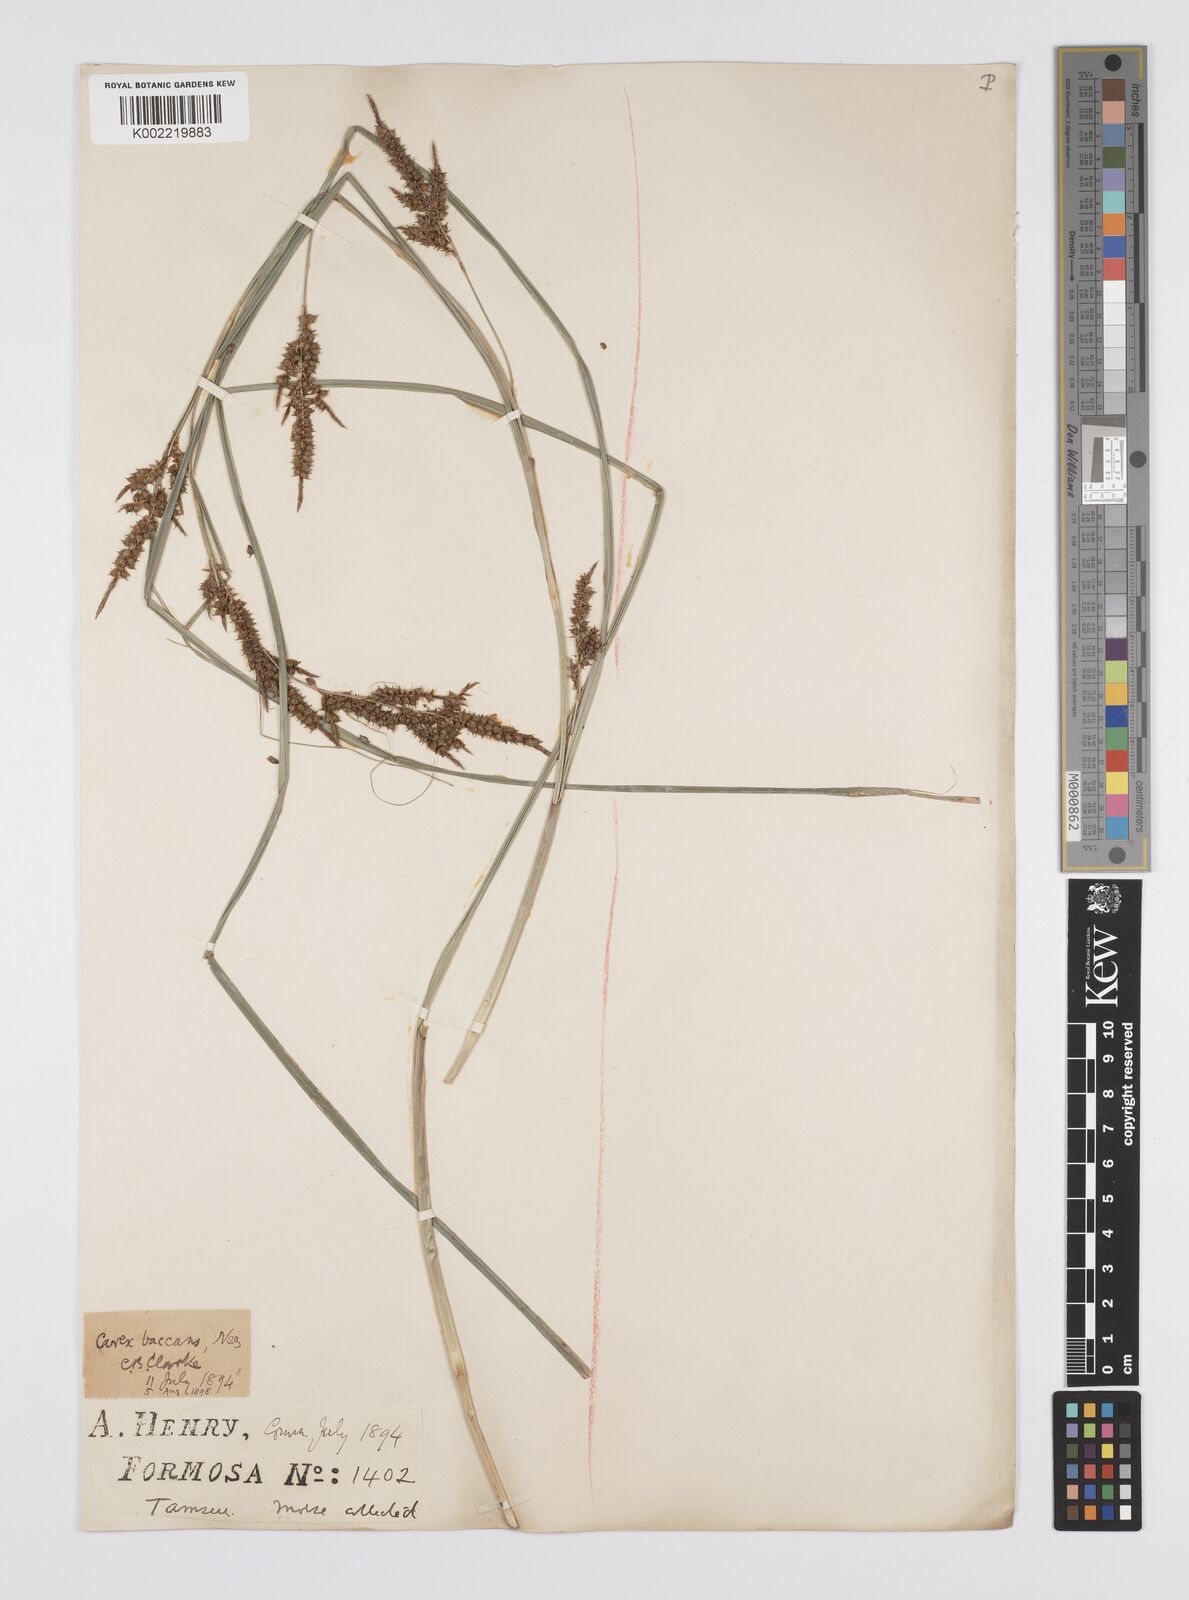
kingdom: Plantae
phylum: Tracheophyta
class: Liliopsida
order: Poales
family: Cyperaceae
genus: Carex
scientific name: Carex baccans
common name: Crimson seeded sedge
